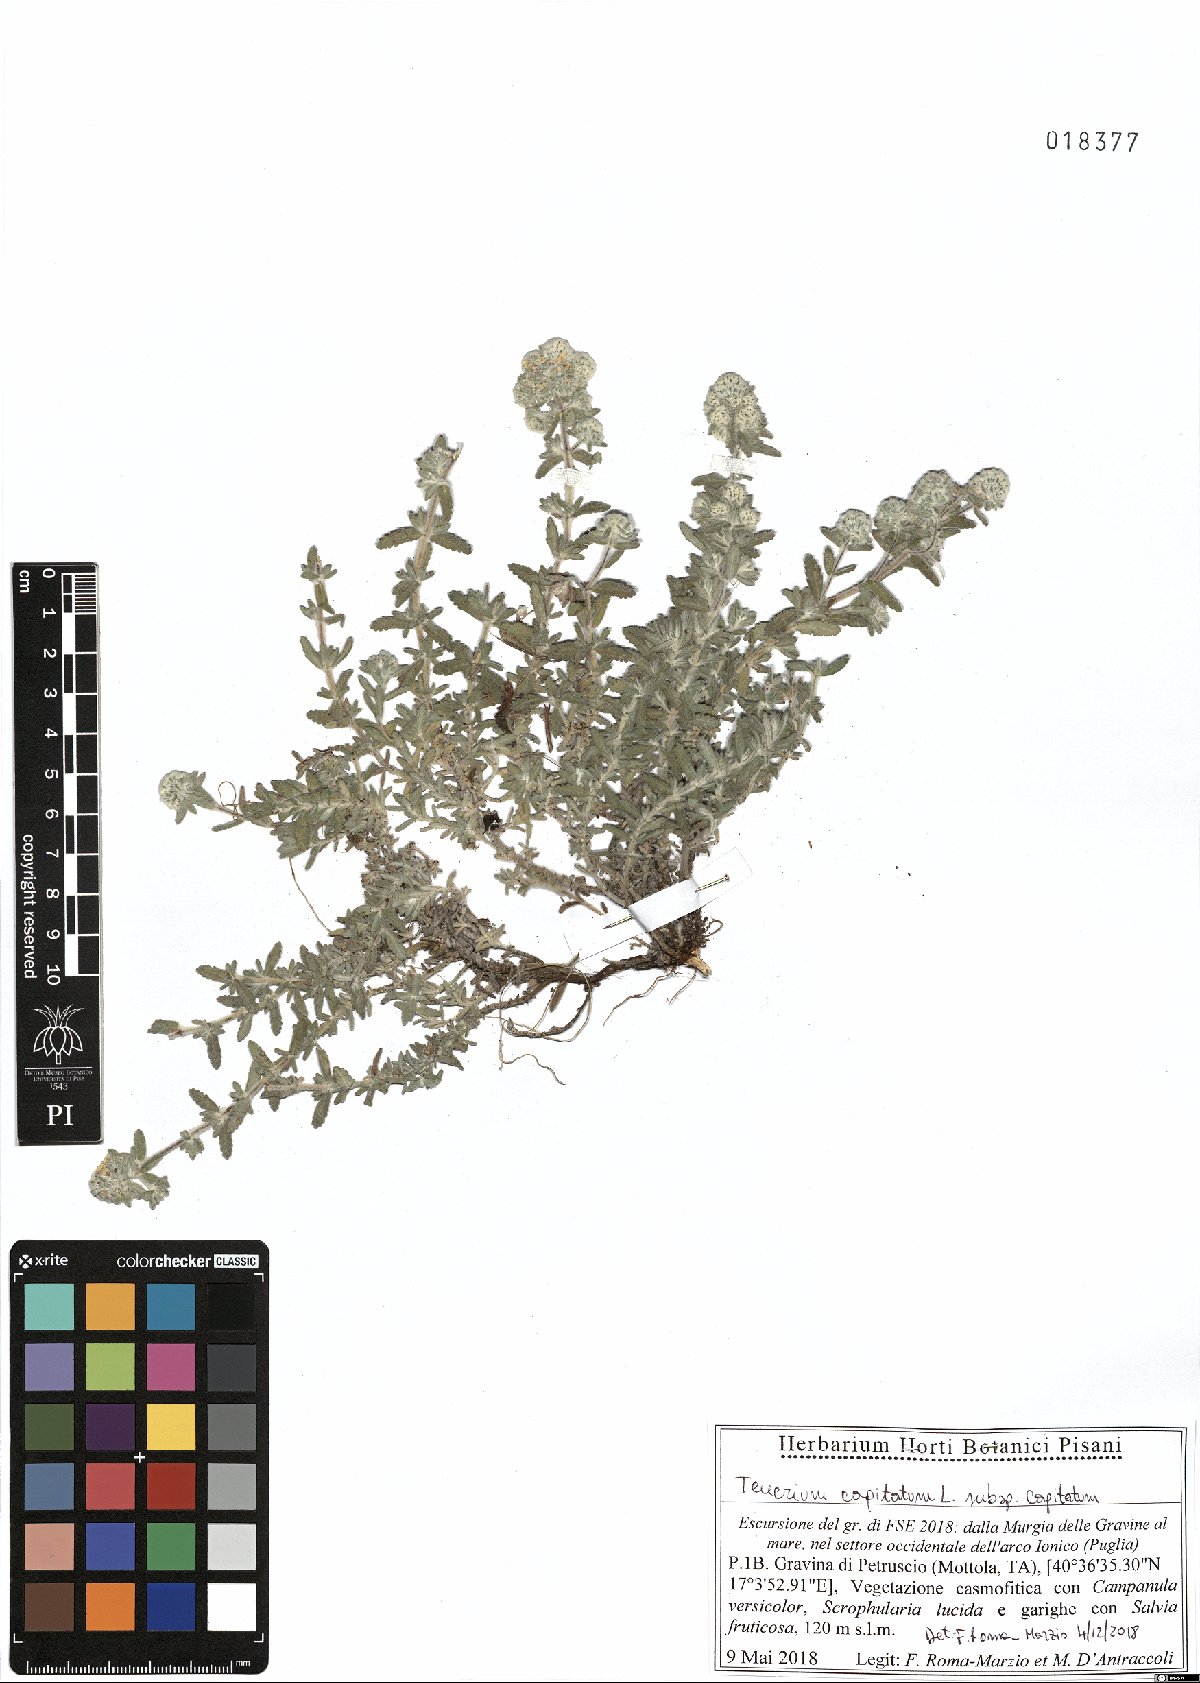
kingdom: Plantae
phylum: Tracheophyta
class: Magnoliopsida
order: Lamiales
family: Lamiaceae
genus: Teucrium
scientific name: Teucrium capitatum
